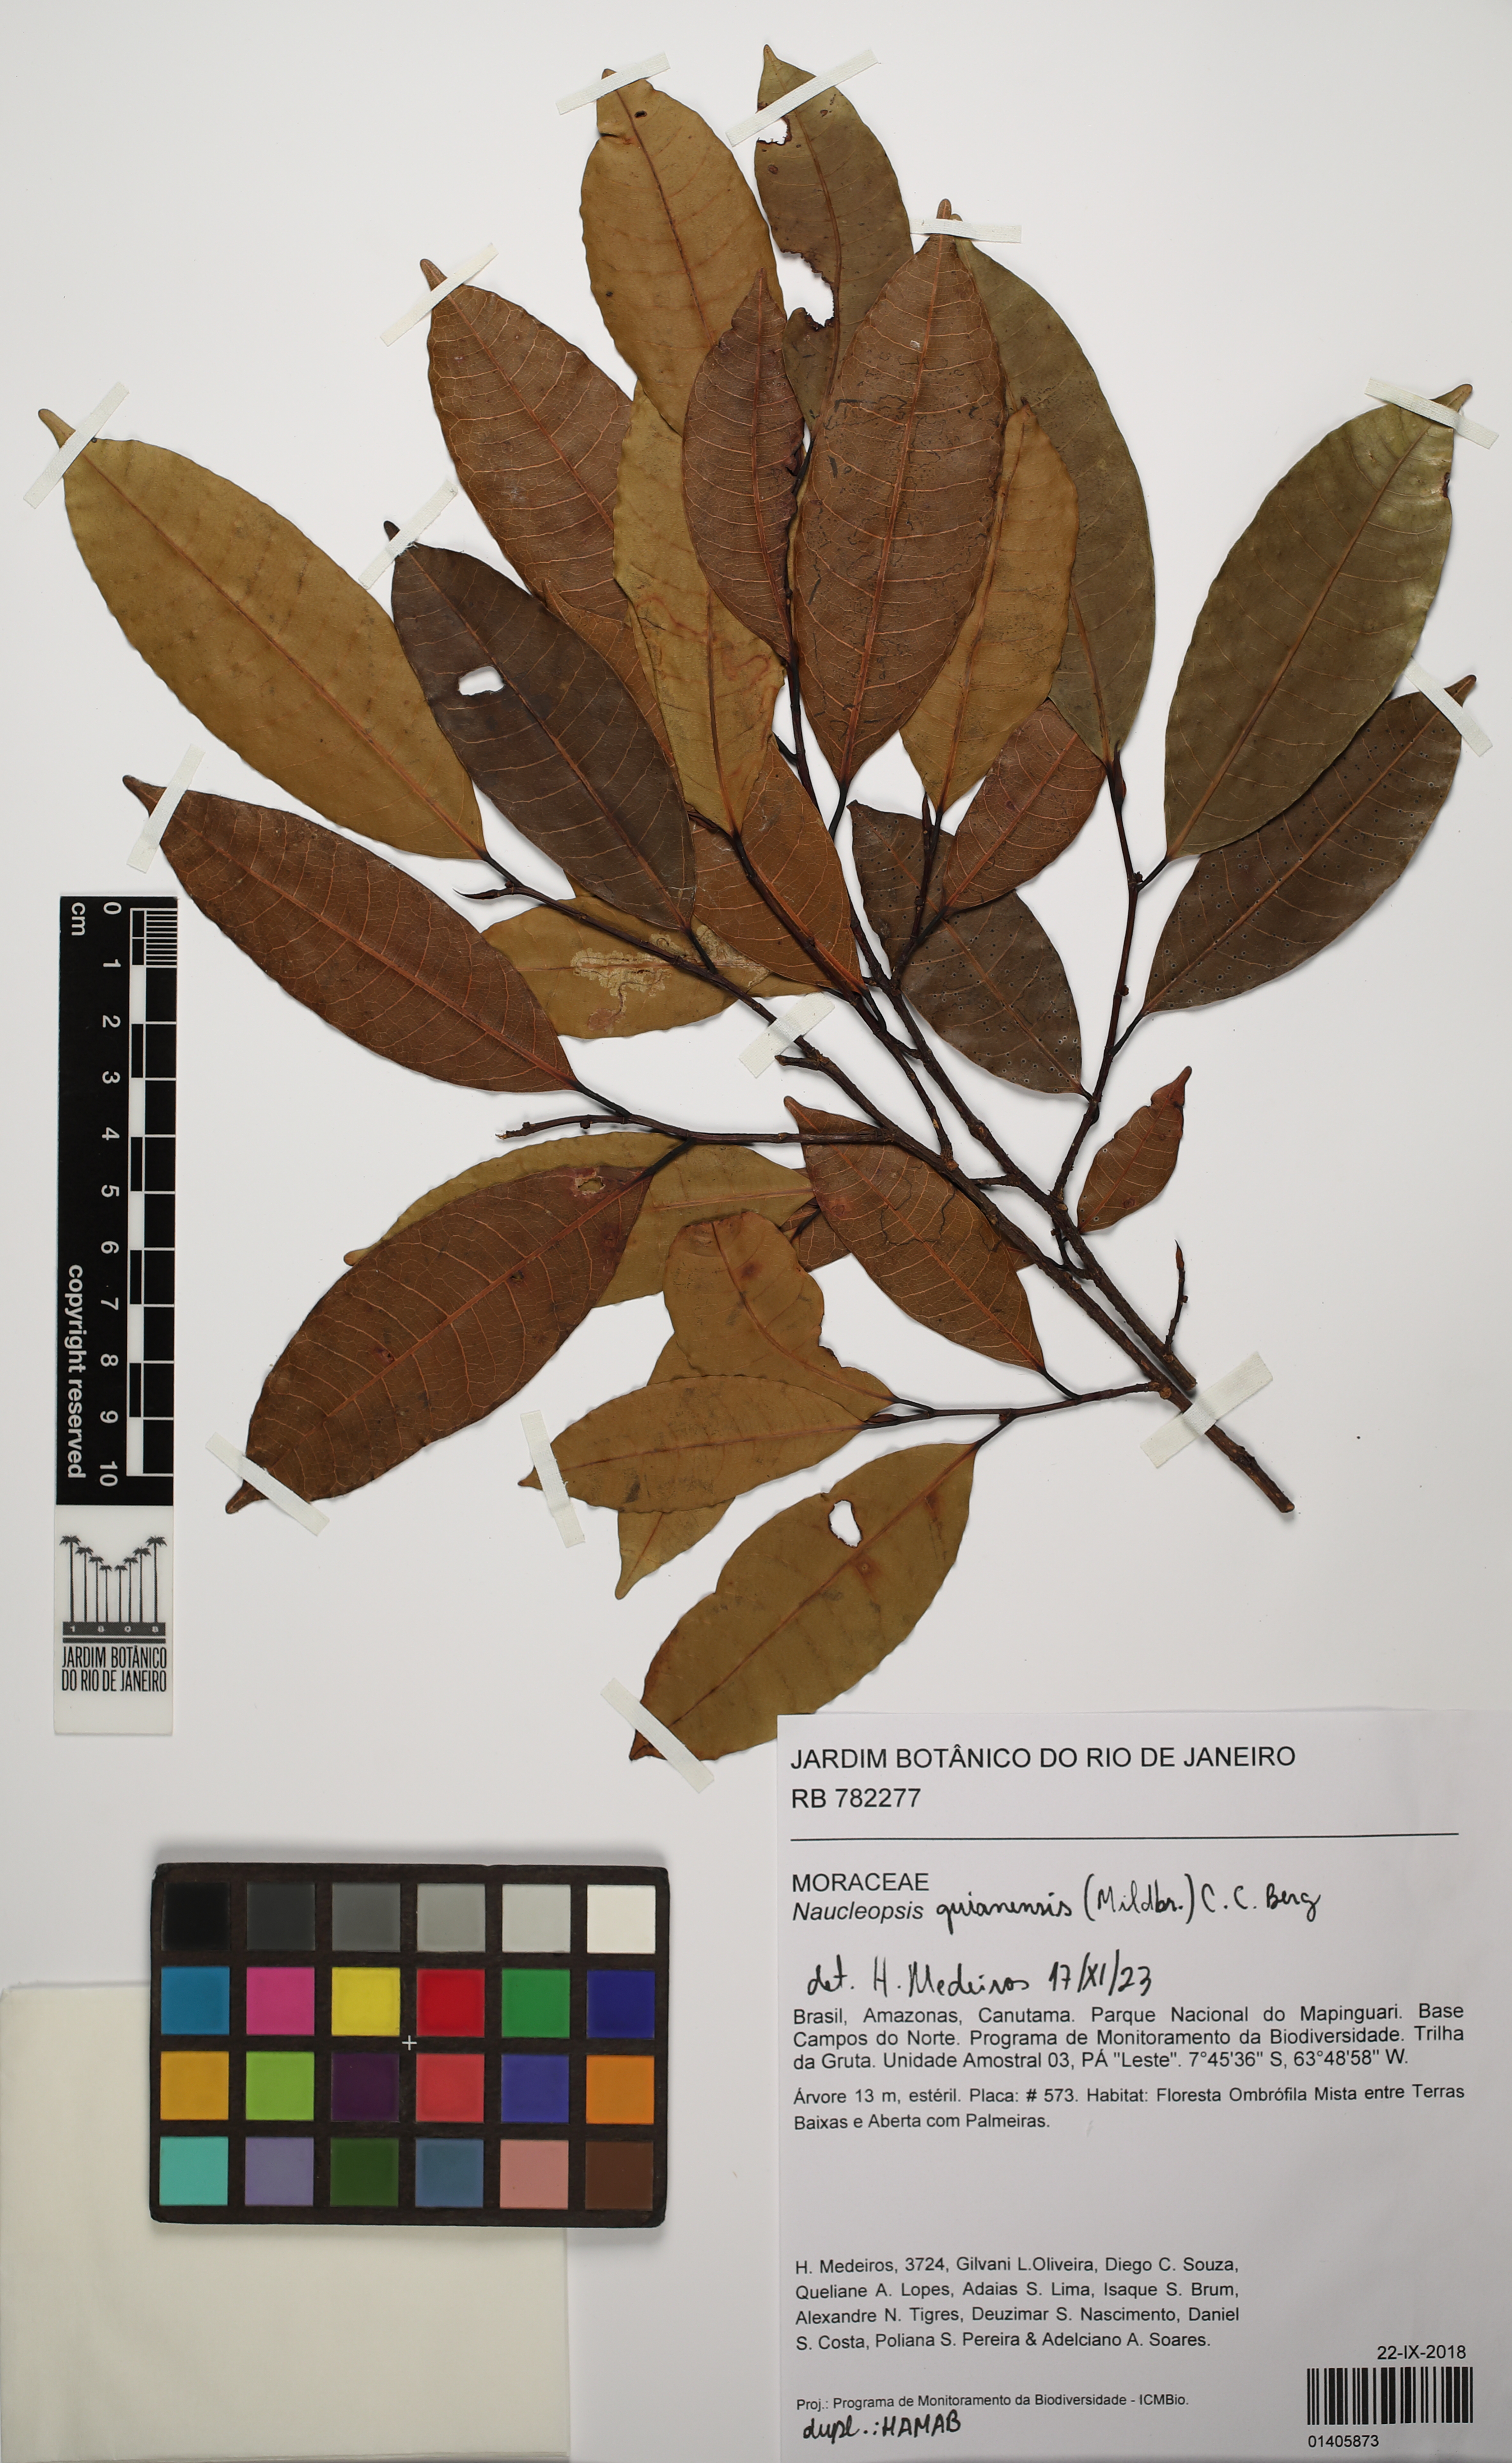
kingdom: Plantae
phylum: Tracheophyta
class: Magnoliopsida
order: Rosales
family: Moraceae
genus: Naucleopsis
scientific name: Naucleopsis guianensis
